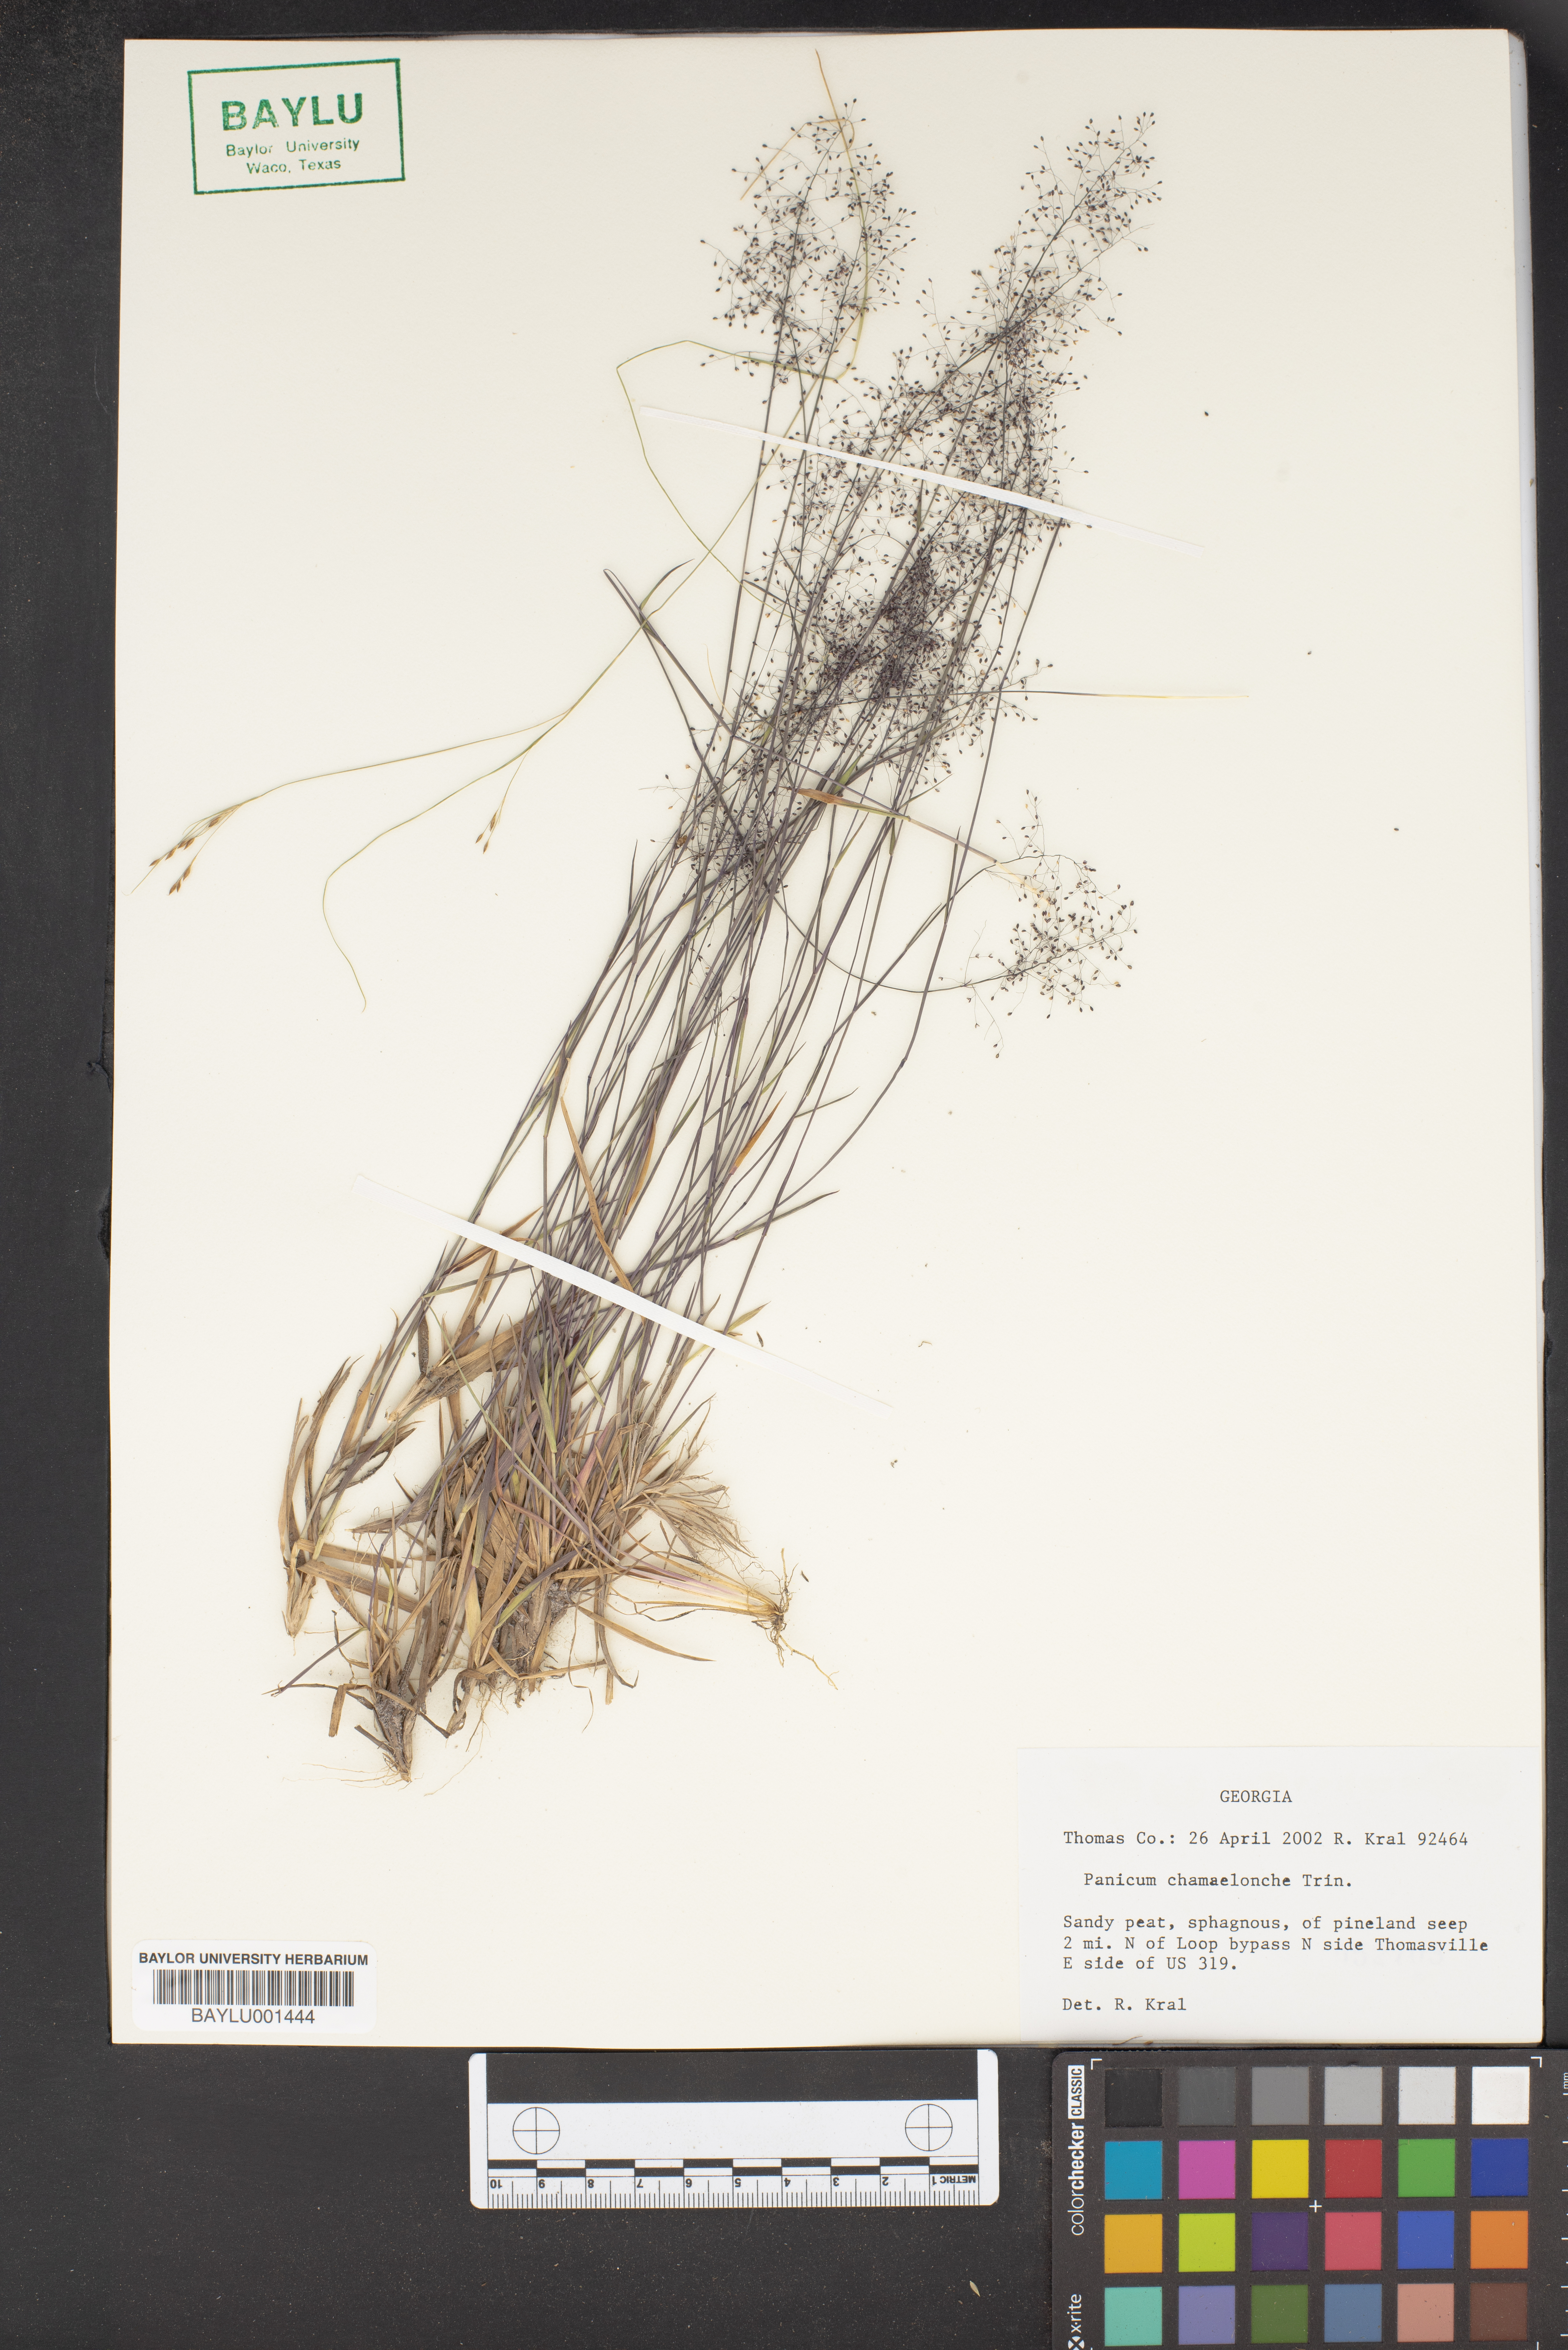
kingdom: Plantae
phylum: Tracheophyta
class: Liliopsida
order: Poales
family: Poaceae
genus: Dichanthelium
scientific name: Dichanthelium chamaelonche
